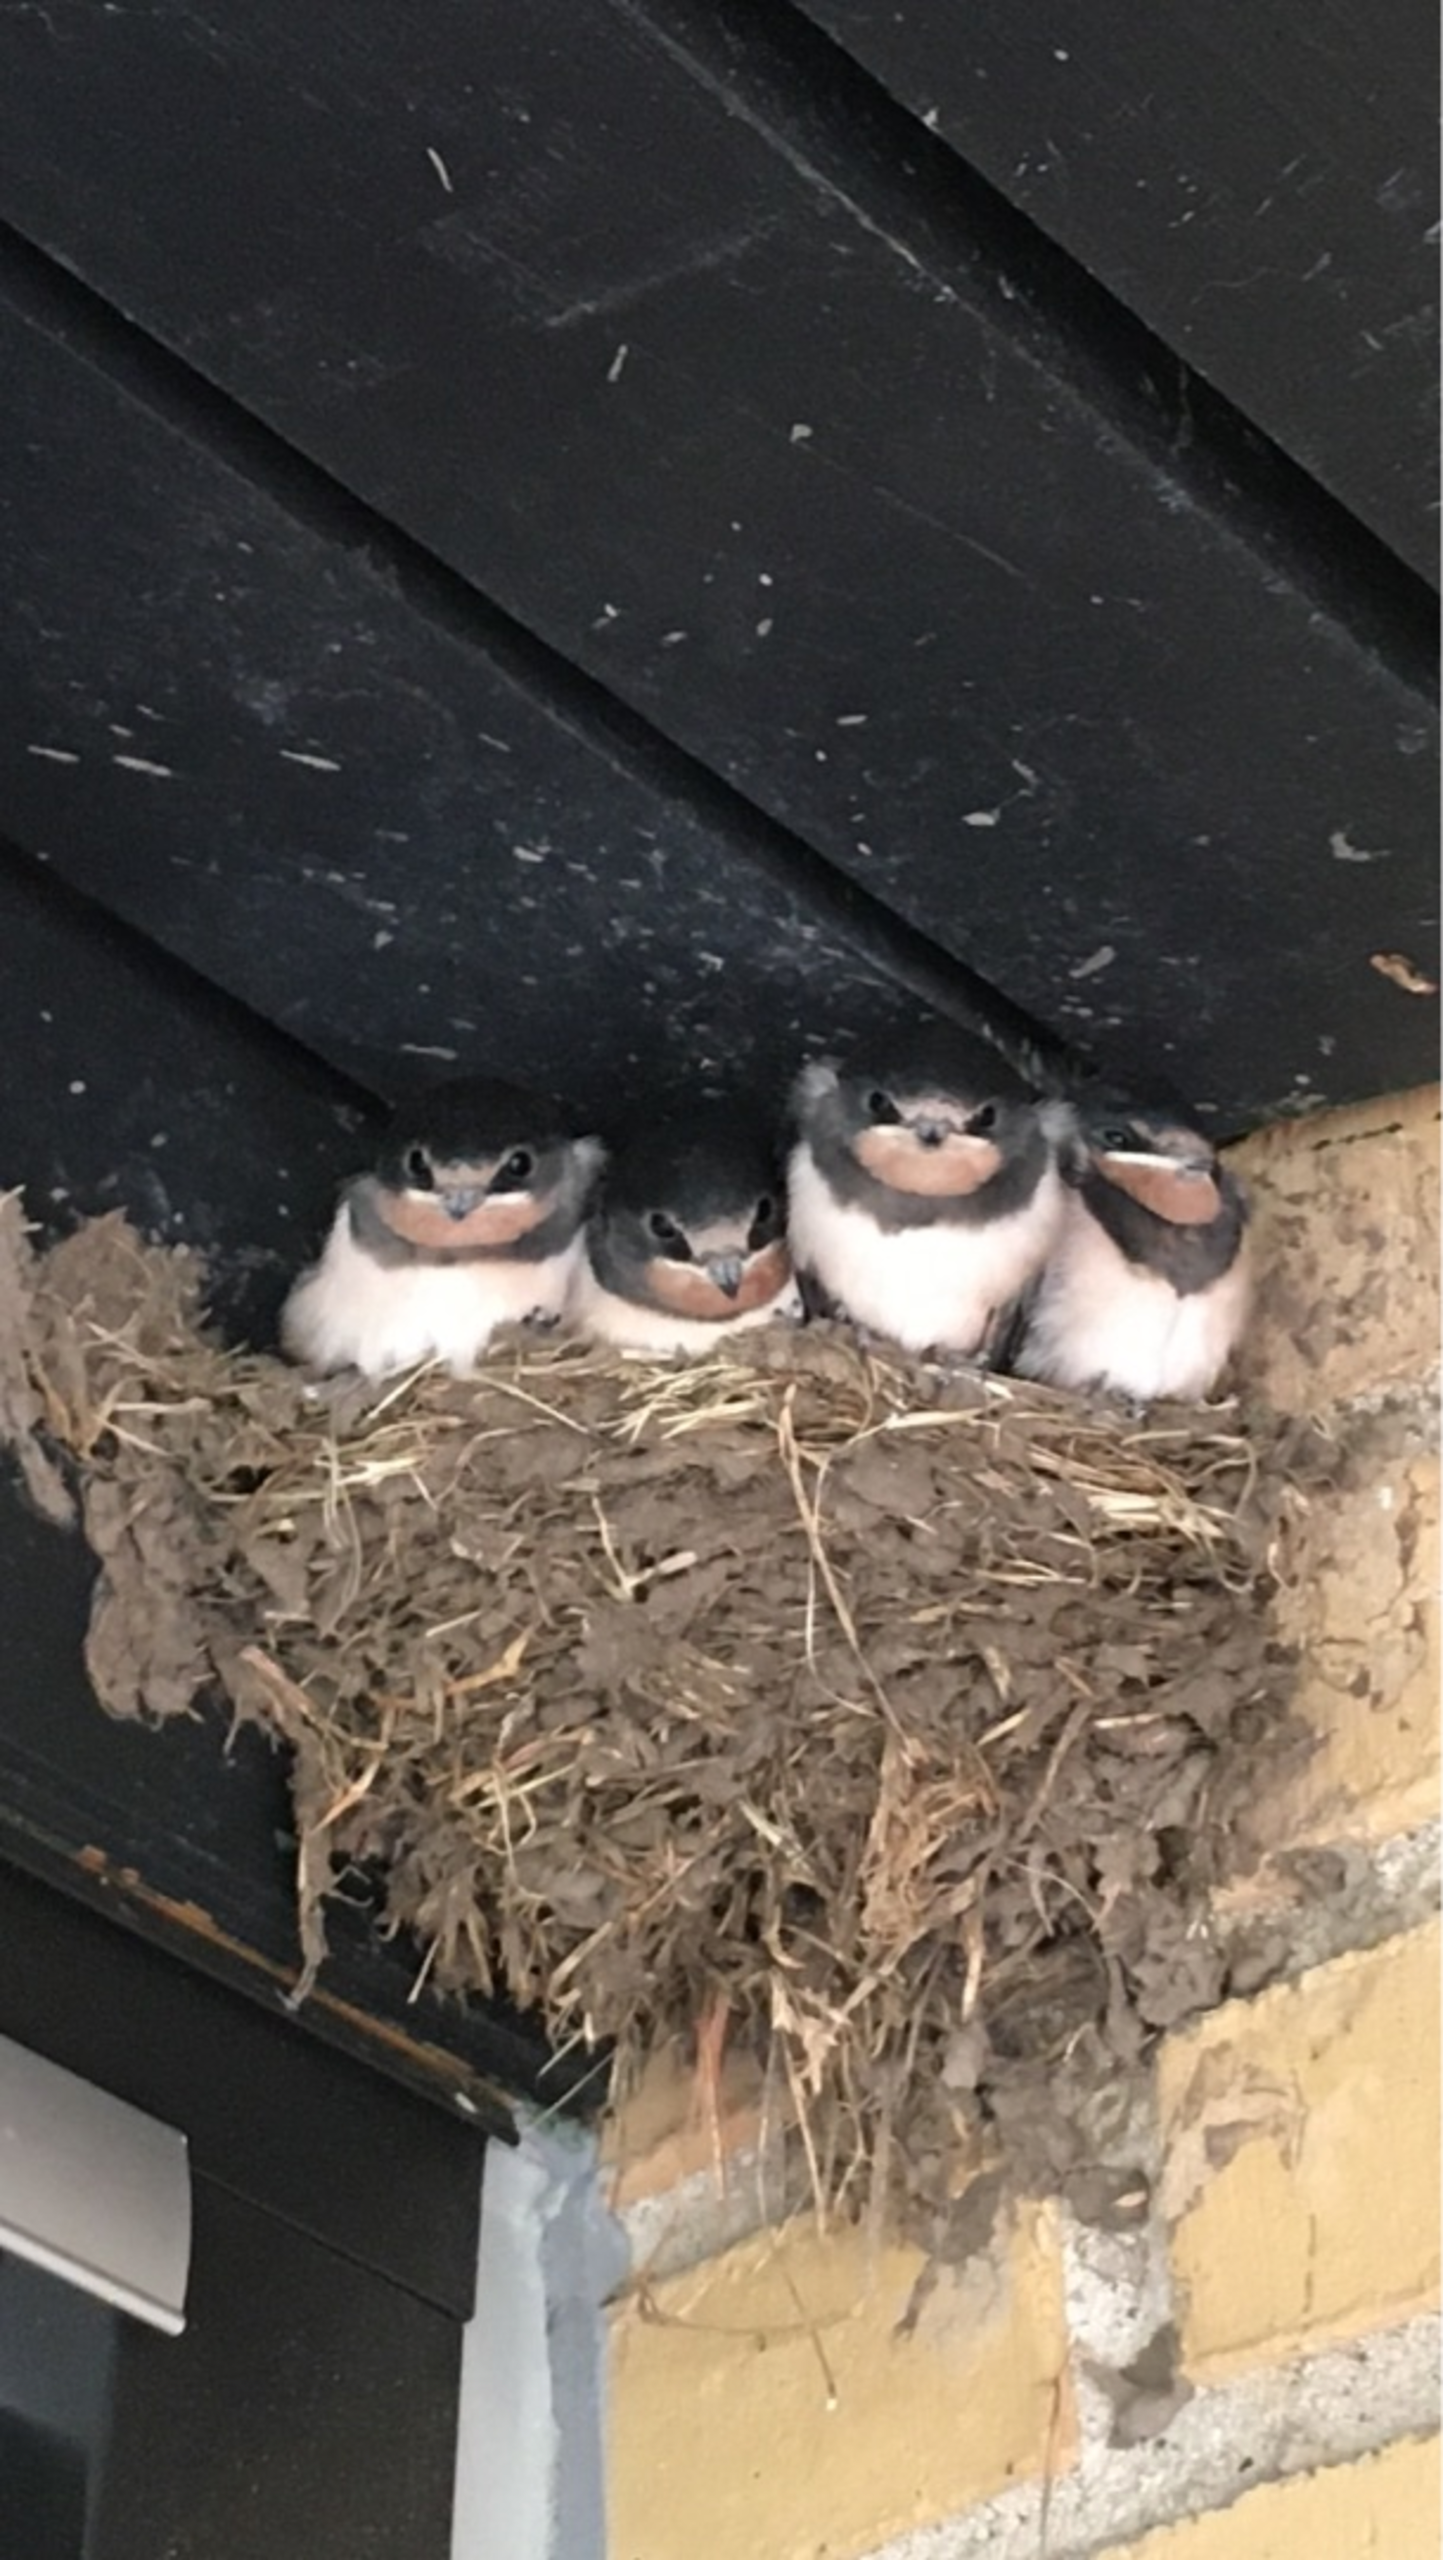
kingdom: Animalia
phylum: Chordata
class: Aves
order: Passeriformes
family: Hirundinidae
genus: Hirundo
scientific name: Hirundo rustica
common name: Landsvale
